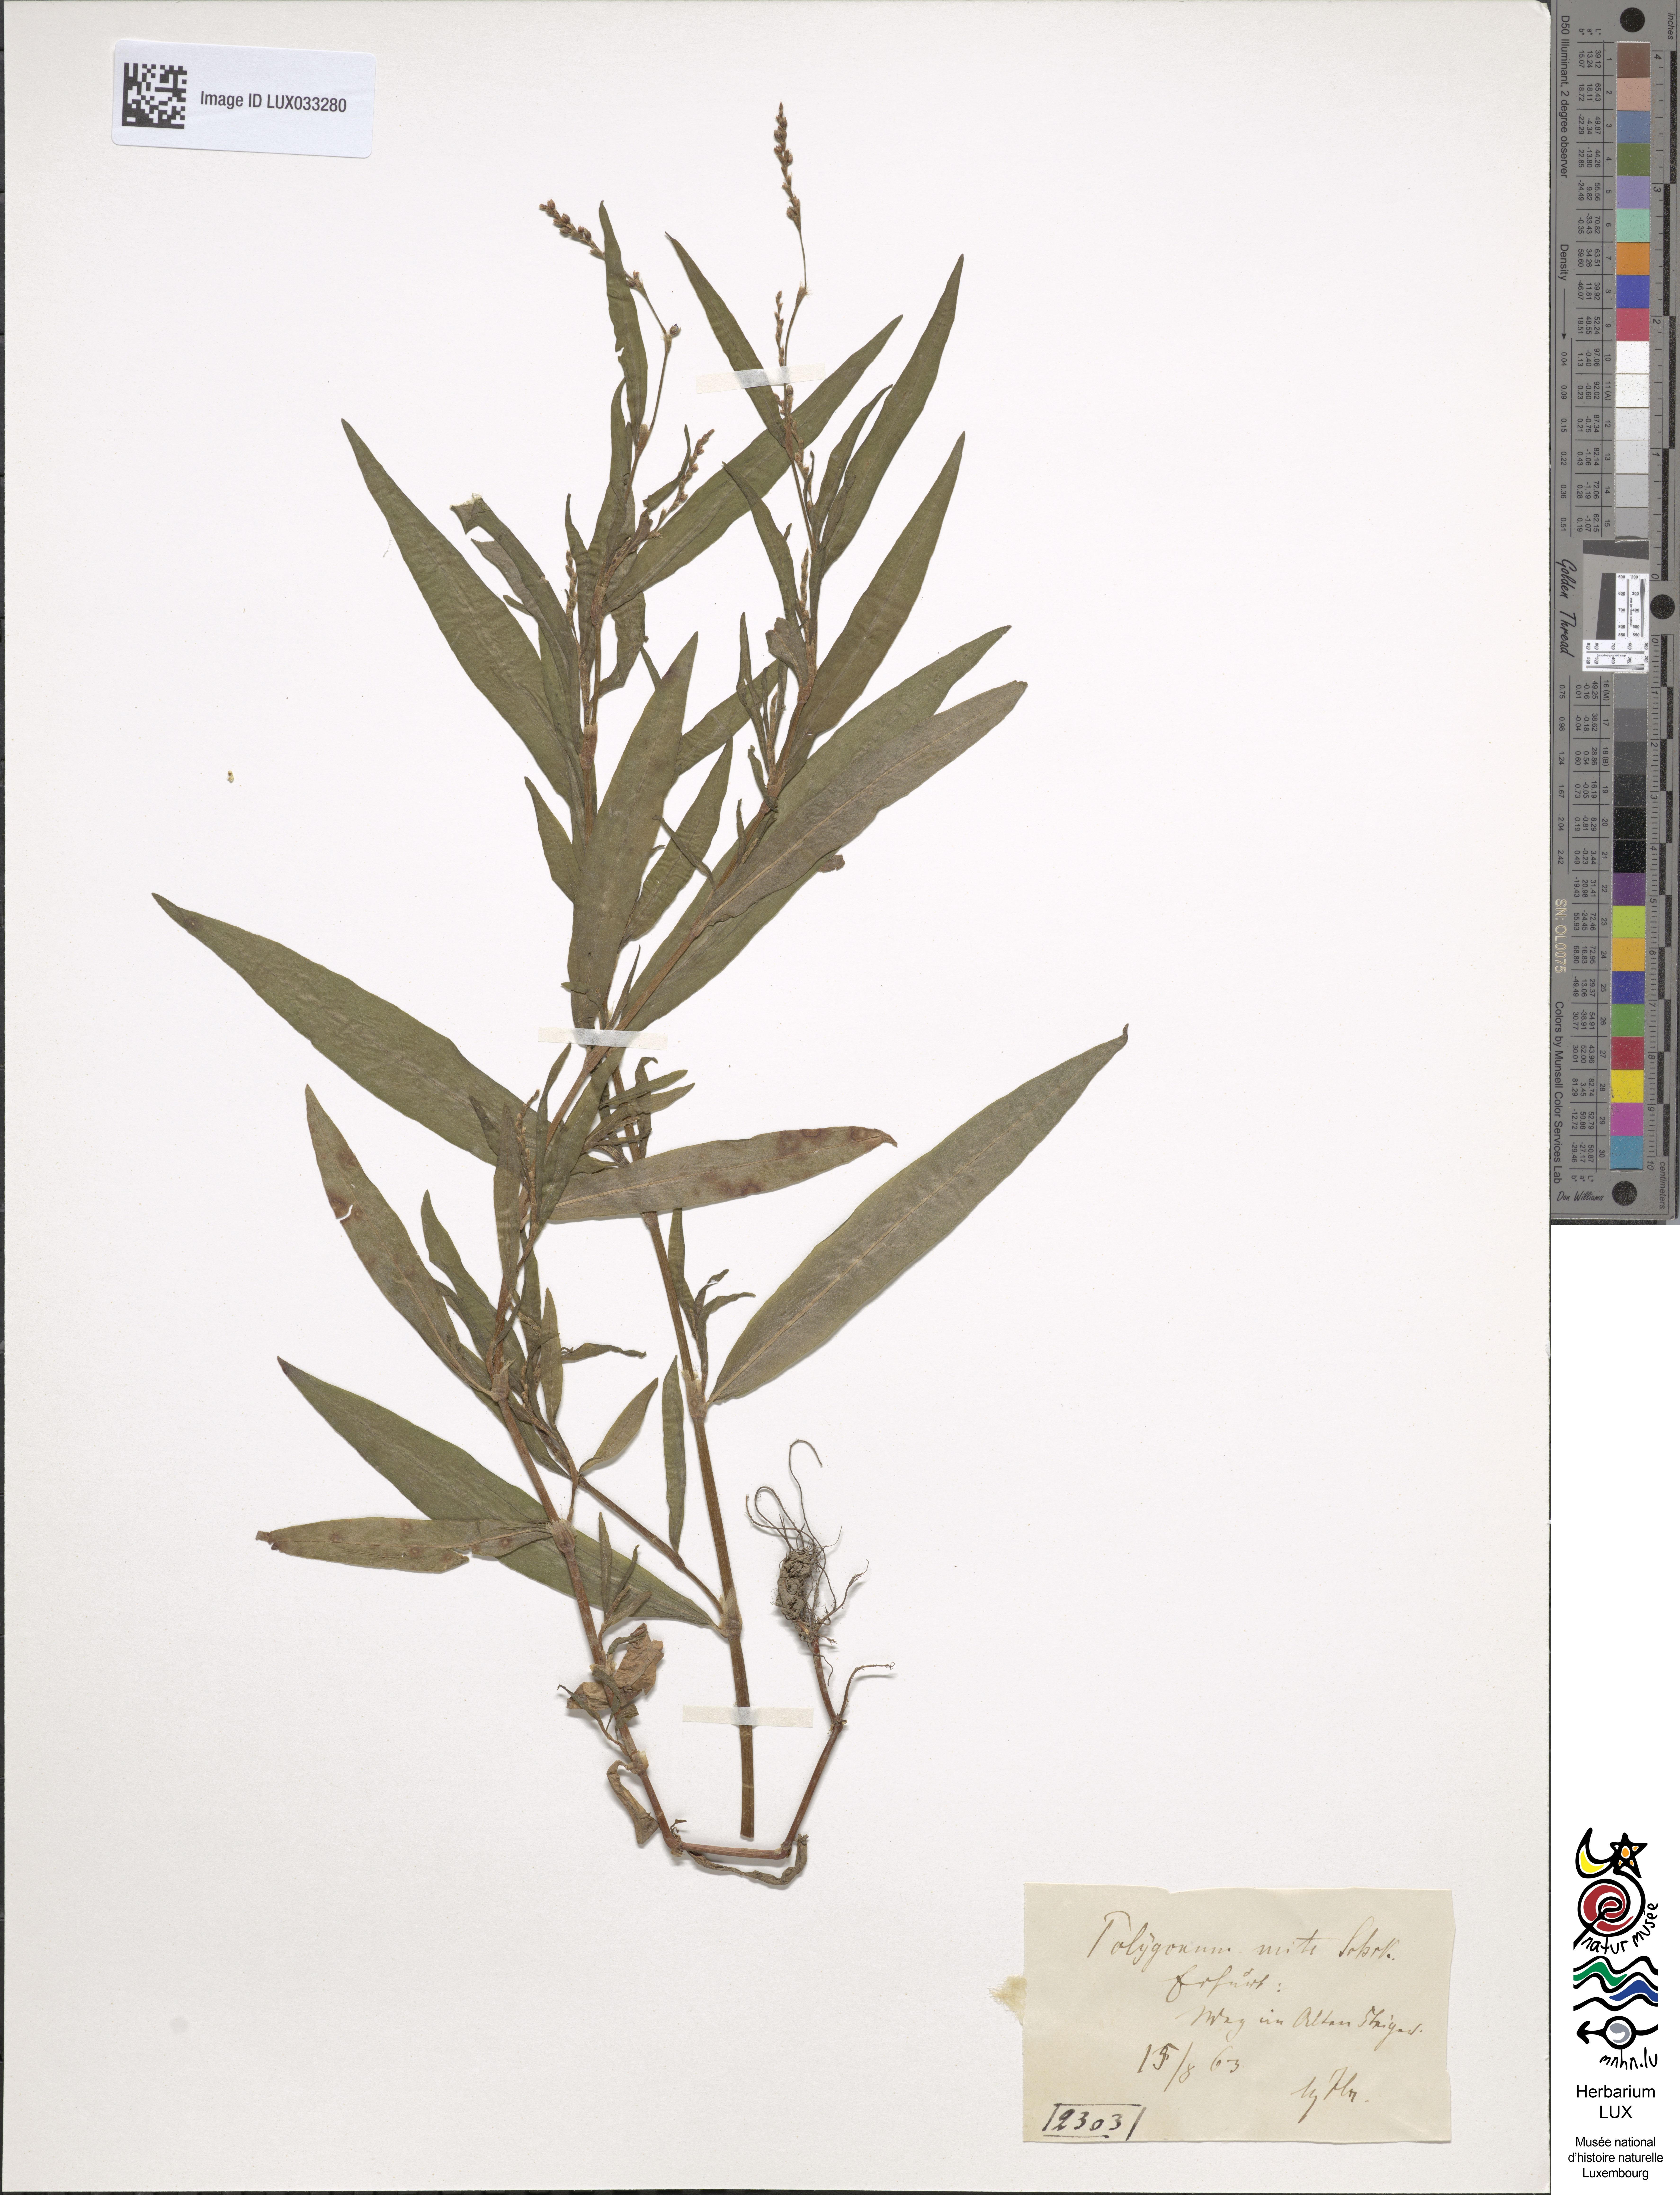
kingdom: Plantae
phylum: Tracheophyta
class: Magnoliopsida
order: Caryophyllales
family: Polygonaceae
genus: Persicaria
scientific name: Persicaria mitis
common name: Tasteless water-pepper
